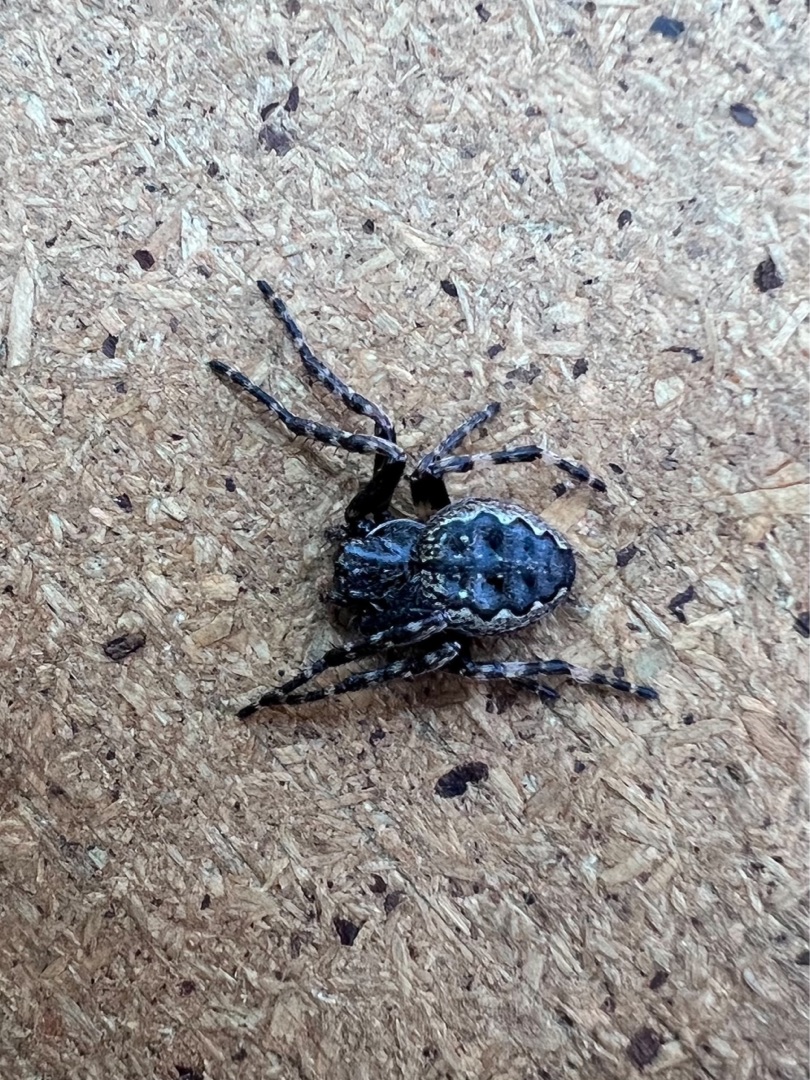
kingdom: Animalia
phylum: Arthropoda
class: Arachnida
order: Araneae
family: Araneidae
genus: Nuctenea
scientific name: Nuctenea umbratica
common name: Flad hjulspinder
